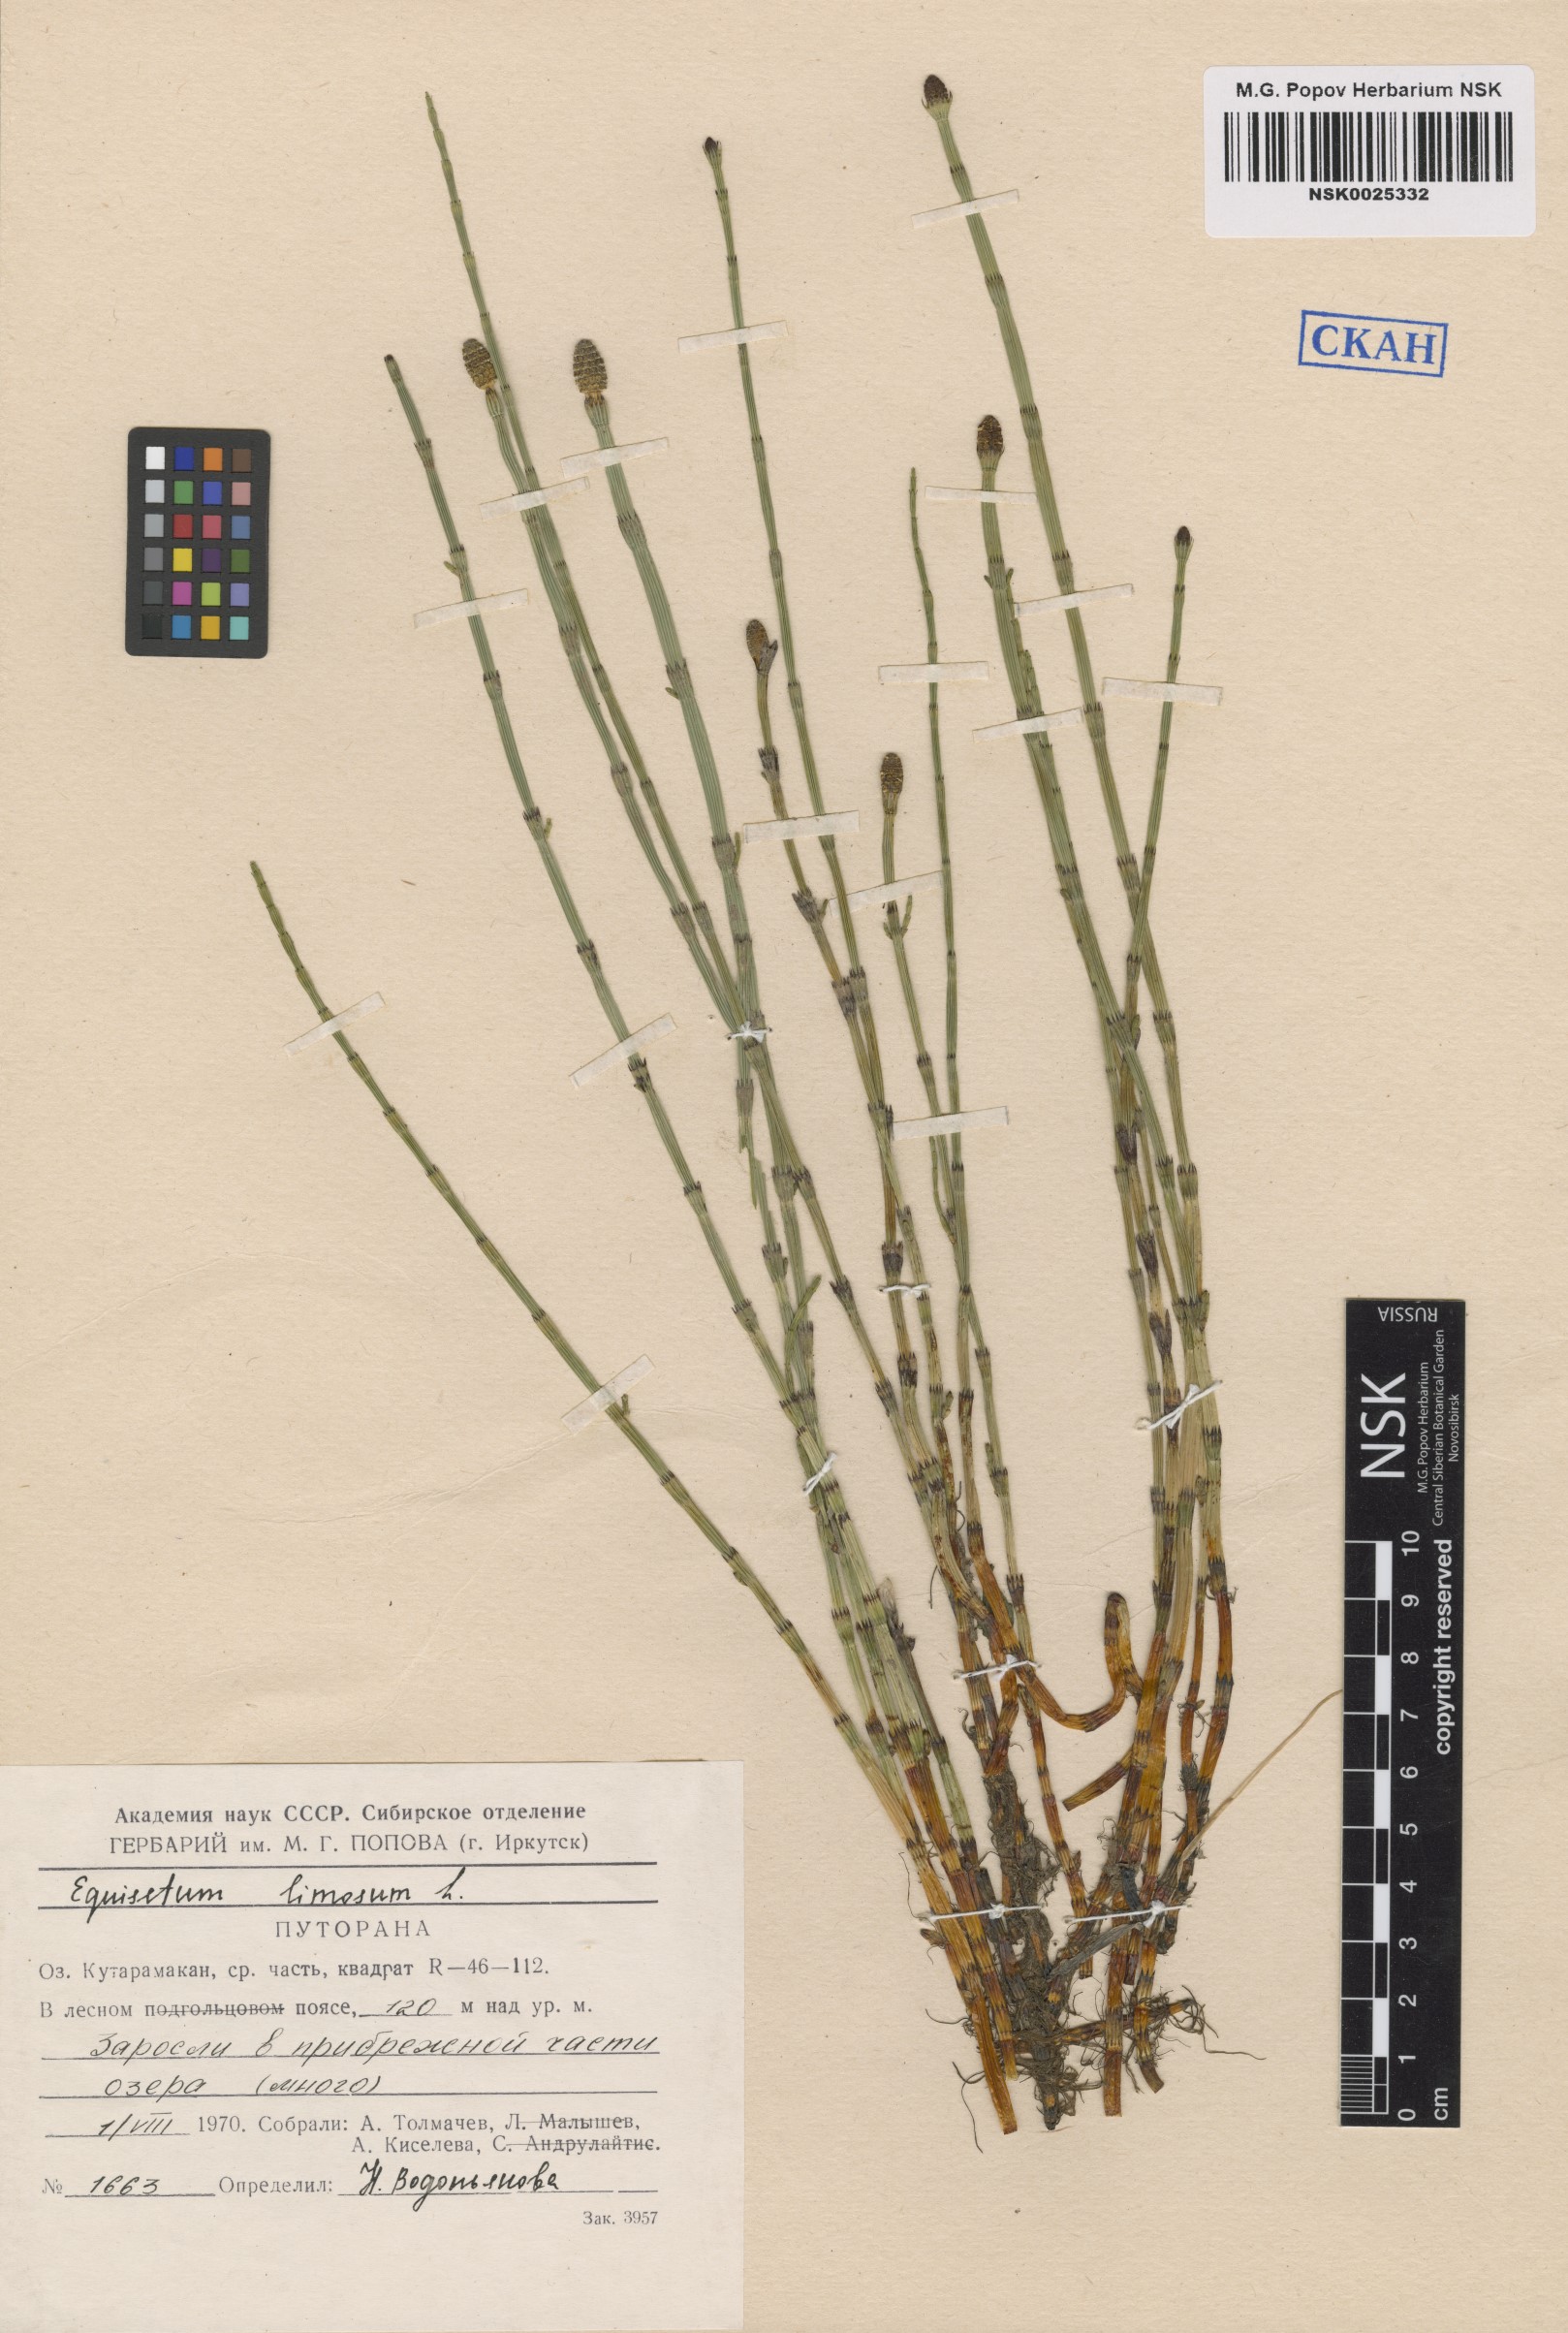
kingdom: Plantae
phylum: Tracheophyta
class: Polypodiopsida
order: Equisetales
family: Equisetaceae
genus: Equisetum
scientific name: Equisetum fluviatile
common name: Water horsetail
